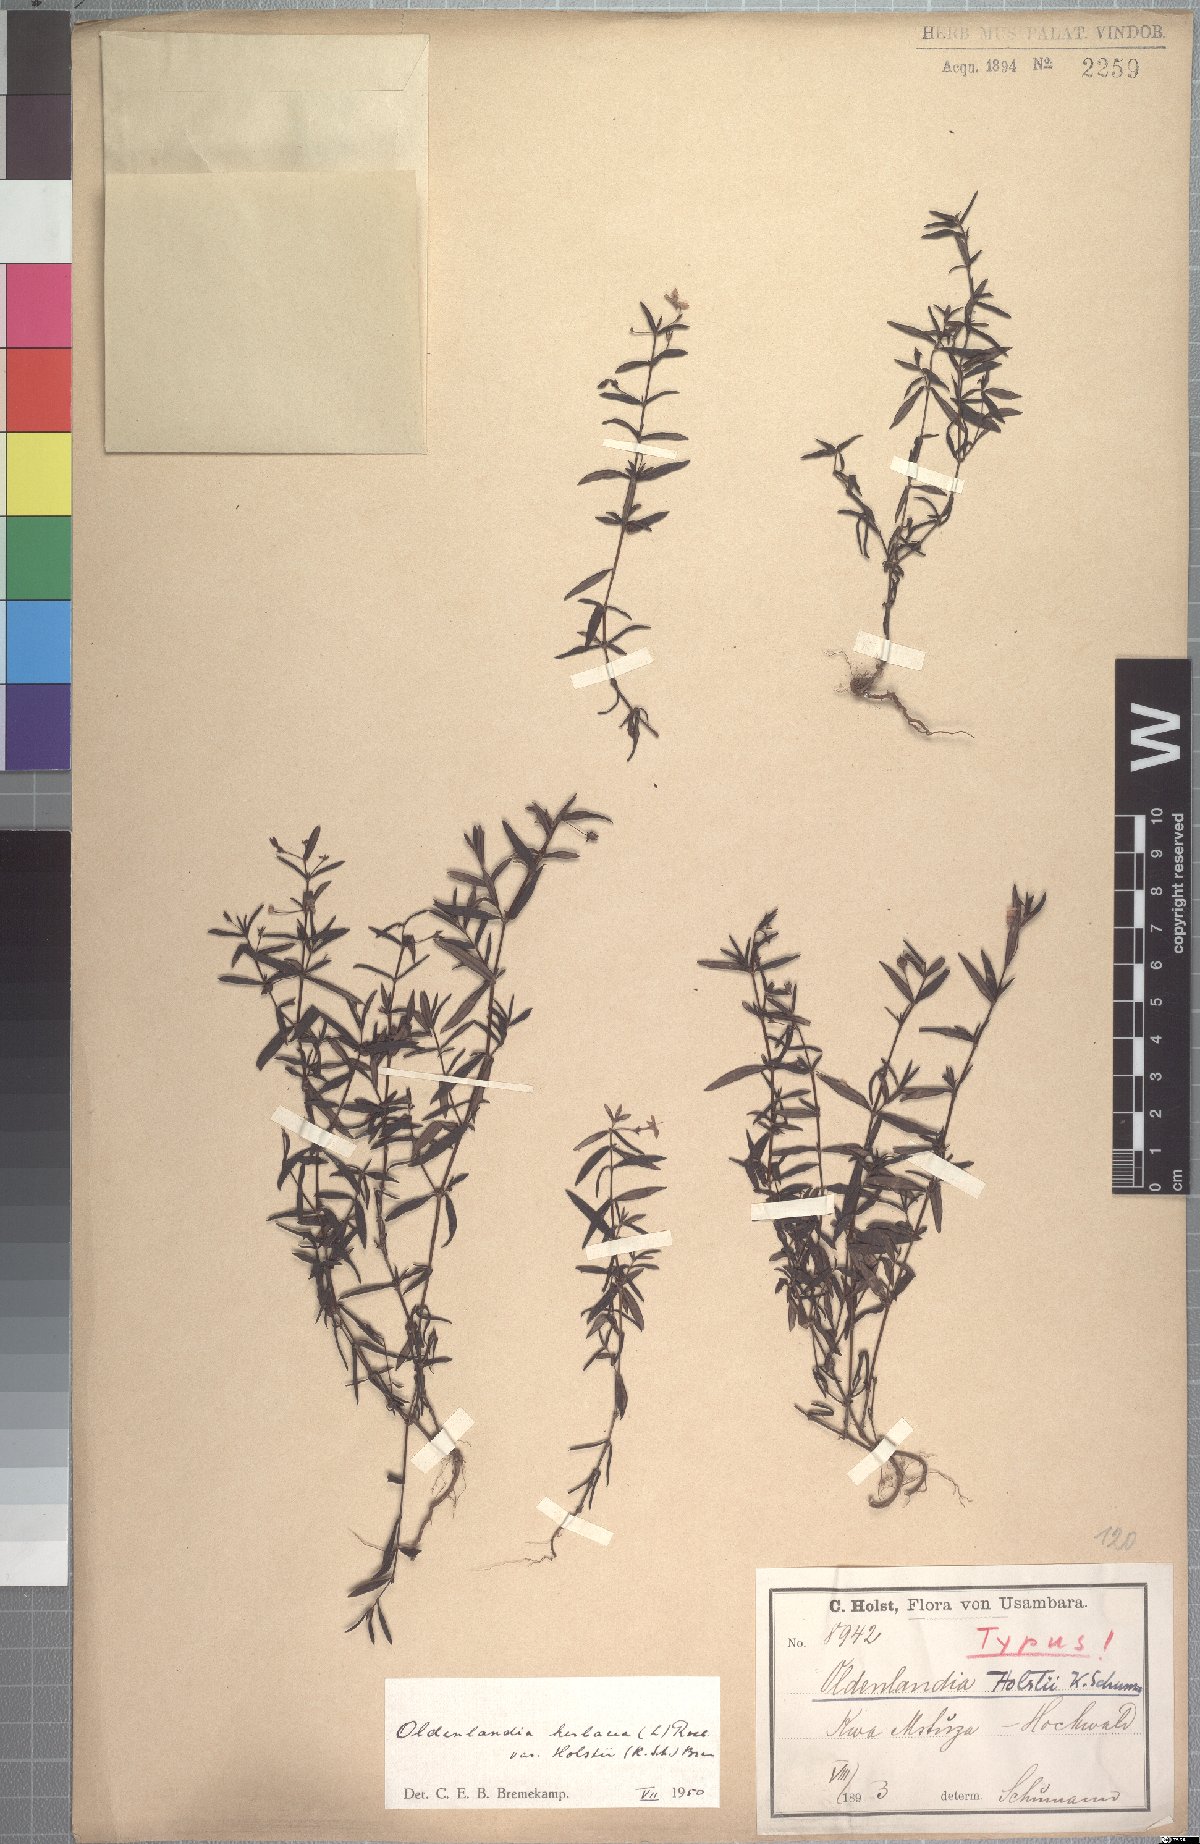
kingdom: Plantae
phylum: Tracheophyta
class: Magnoliopsida
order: Gentianales
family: Rubiaceae
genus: Oldenlandia
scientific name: Oldenlandia herbacea
